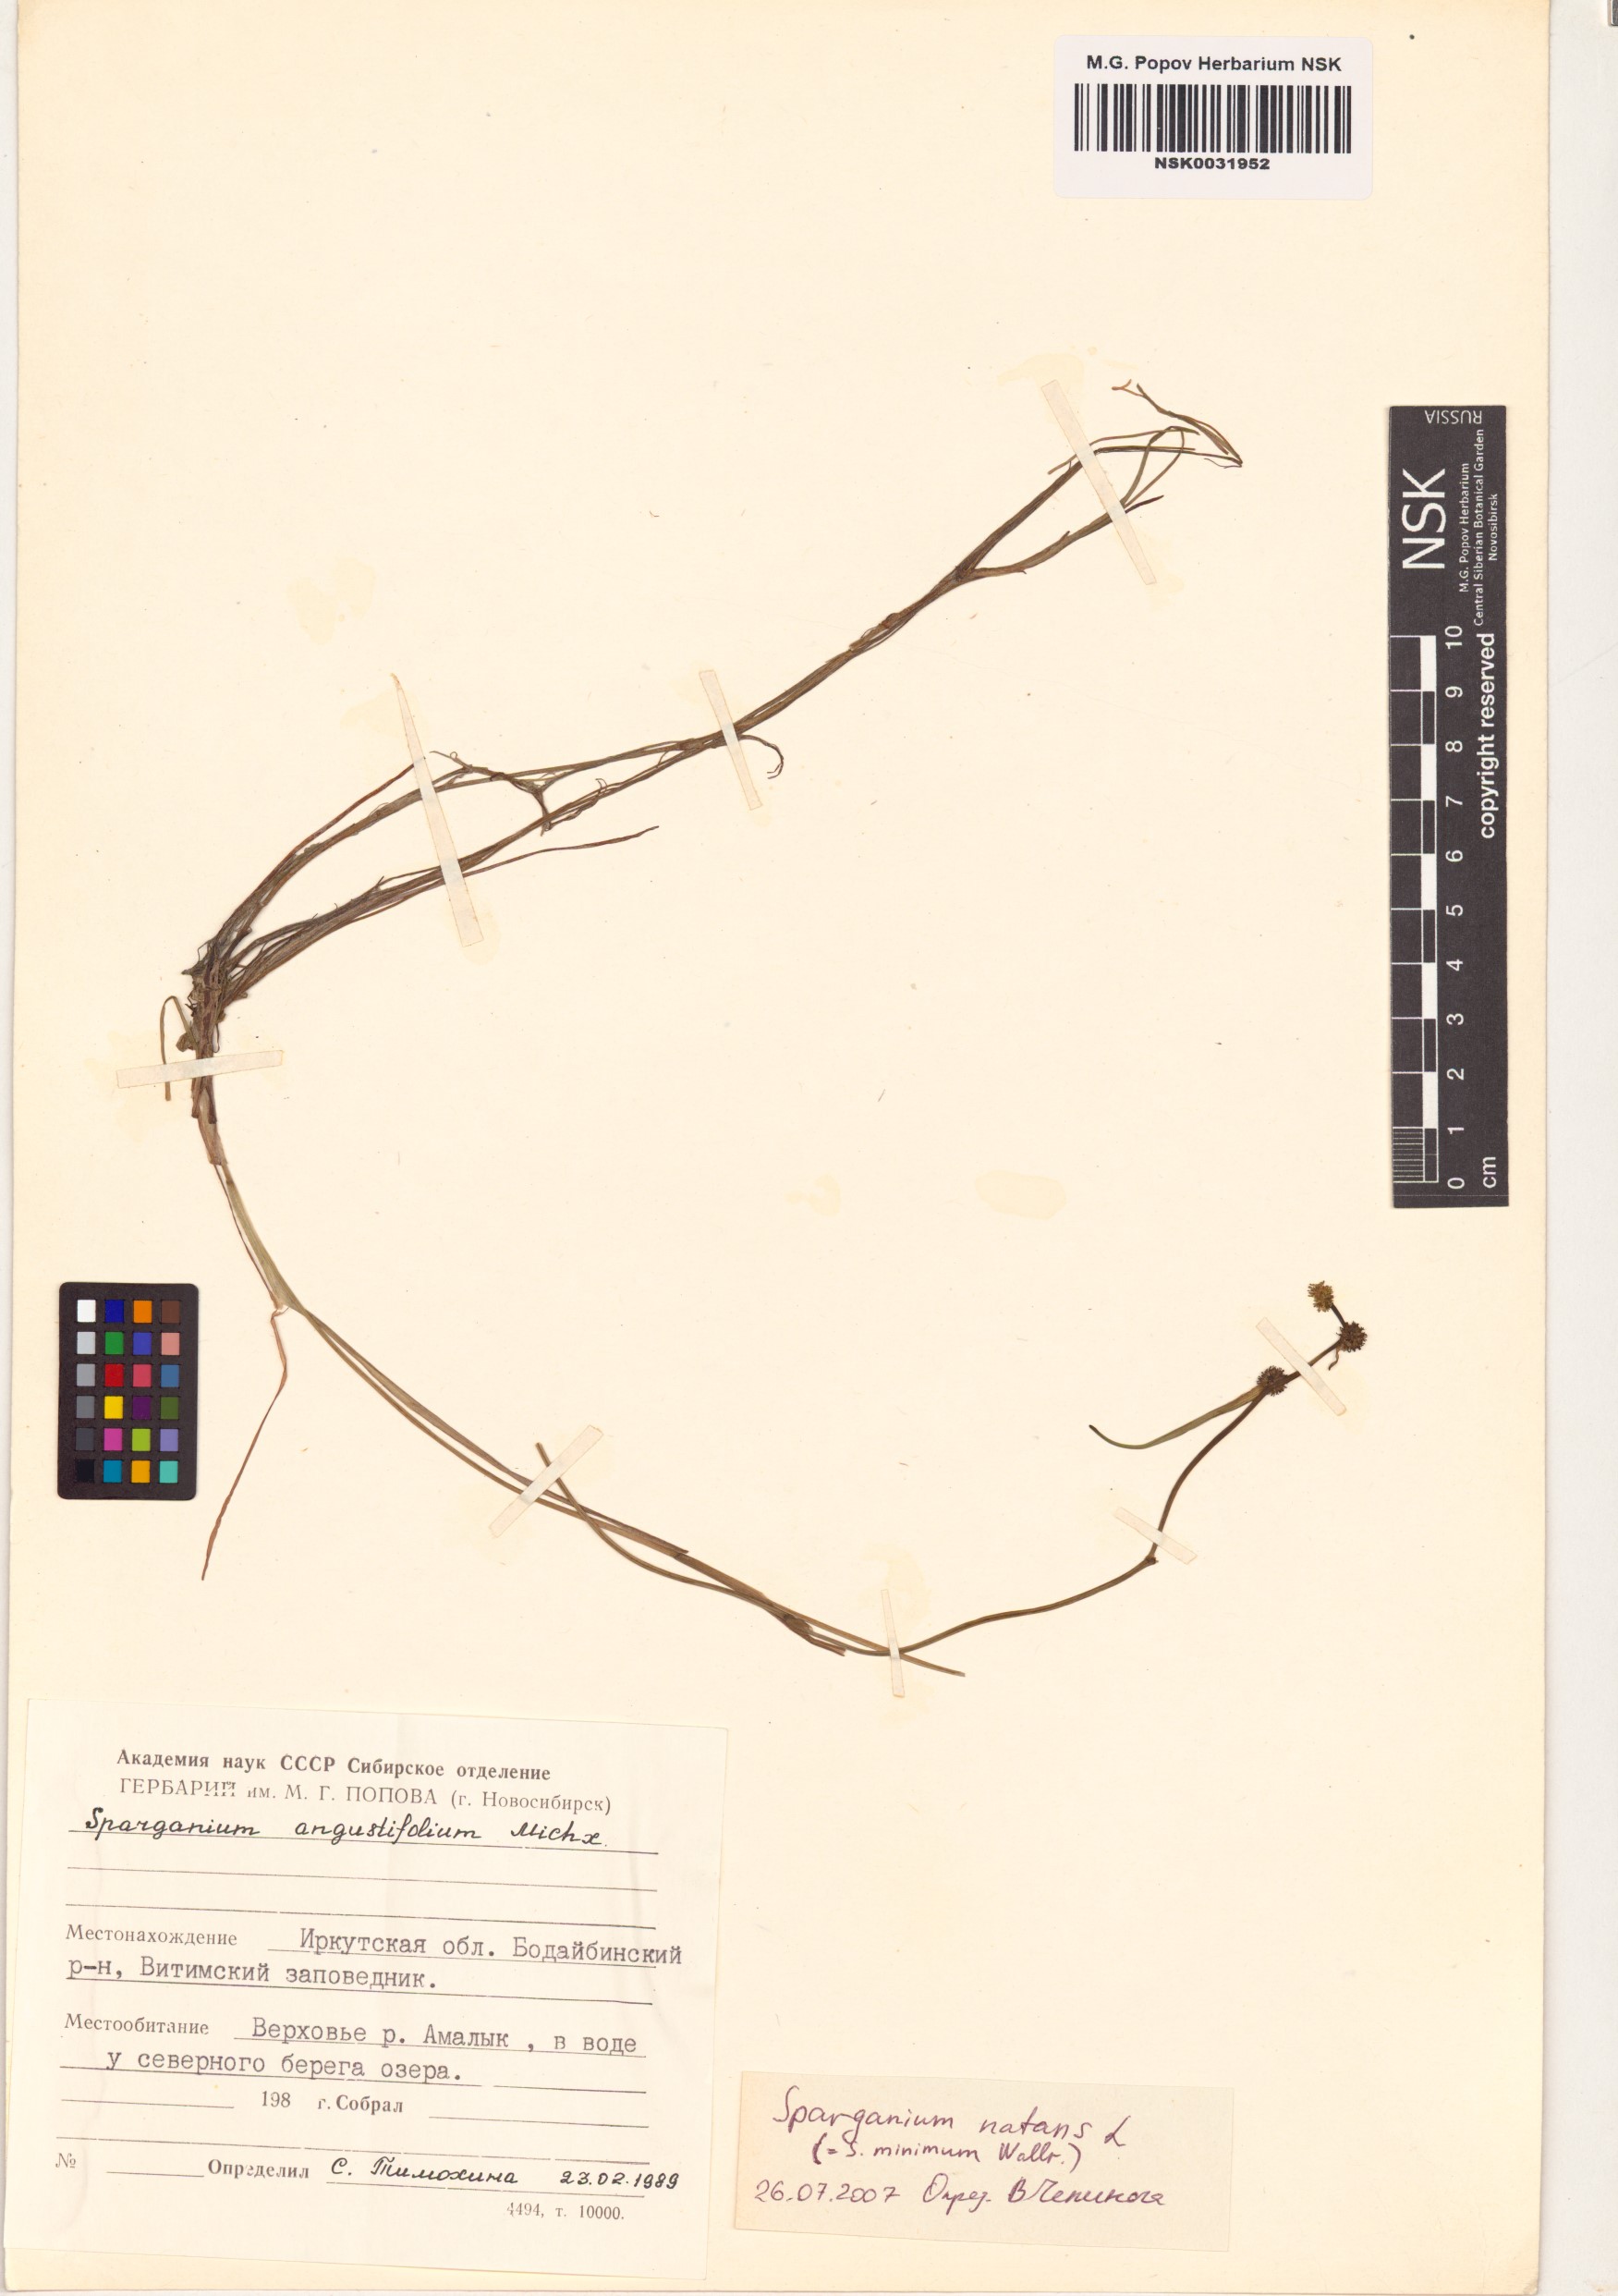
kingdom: Plantae
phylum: Tracheophyta
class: Liliopsida
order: Poales
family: Typhaceae
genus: Sparganium
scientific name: Sparganium natans
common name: Least bur-reed
